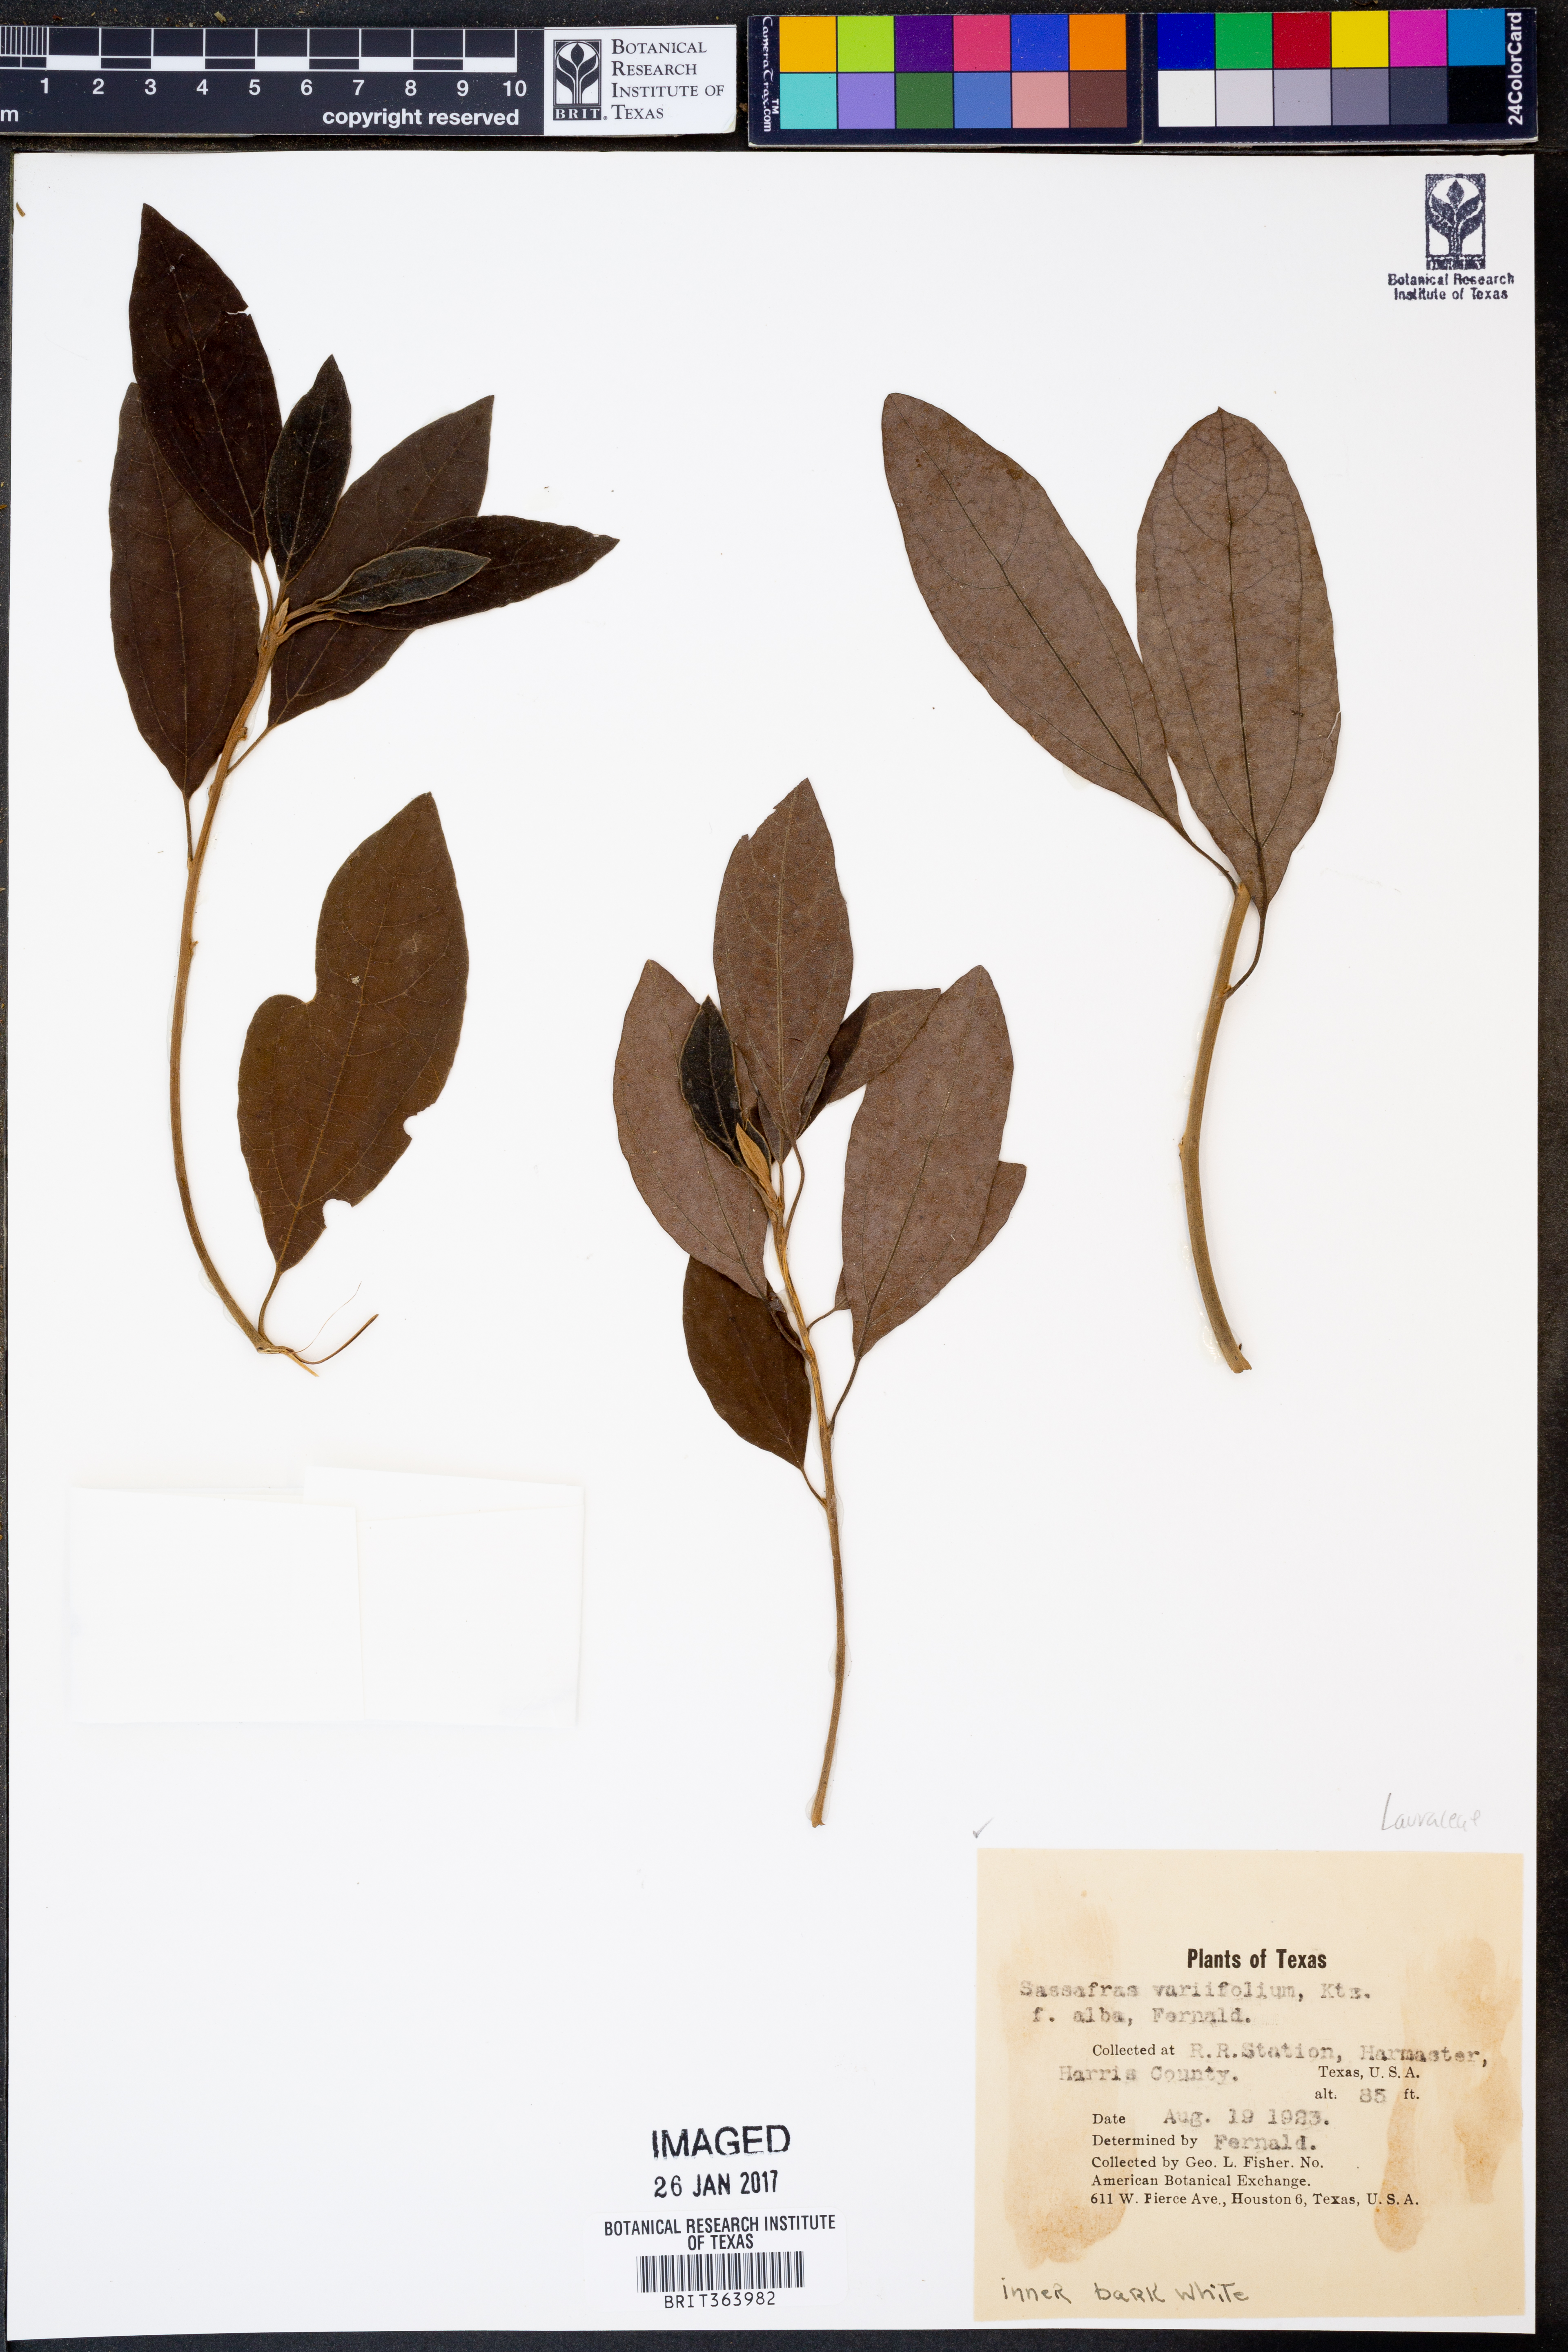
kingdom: Plantae
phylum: Tracheophyta
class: Magnoliopsida
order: Laurales
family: Lauraceae
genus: Sassafras
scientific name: Sassafras albidum
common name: Sassafras
